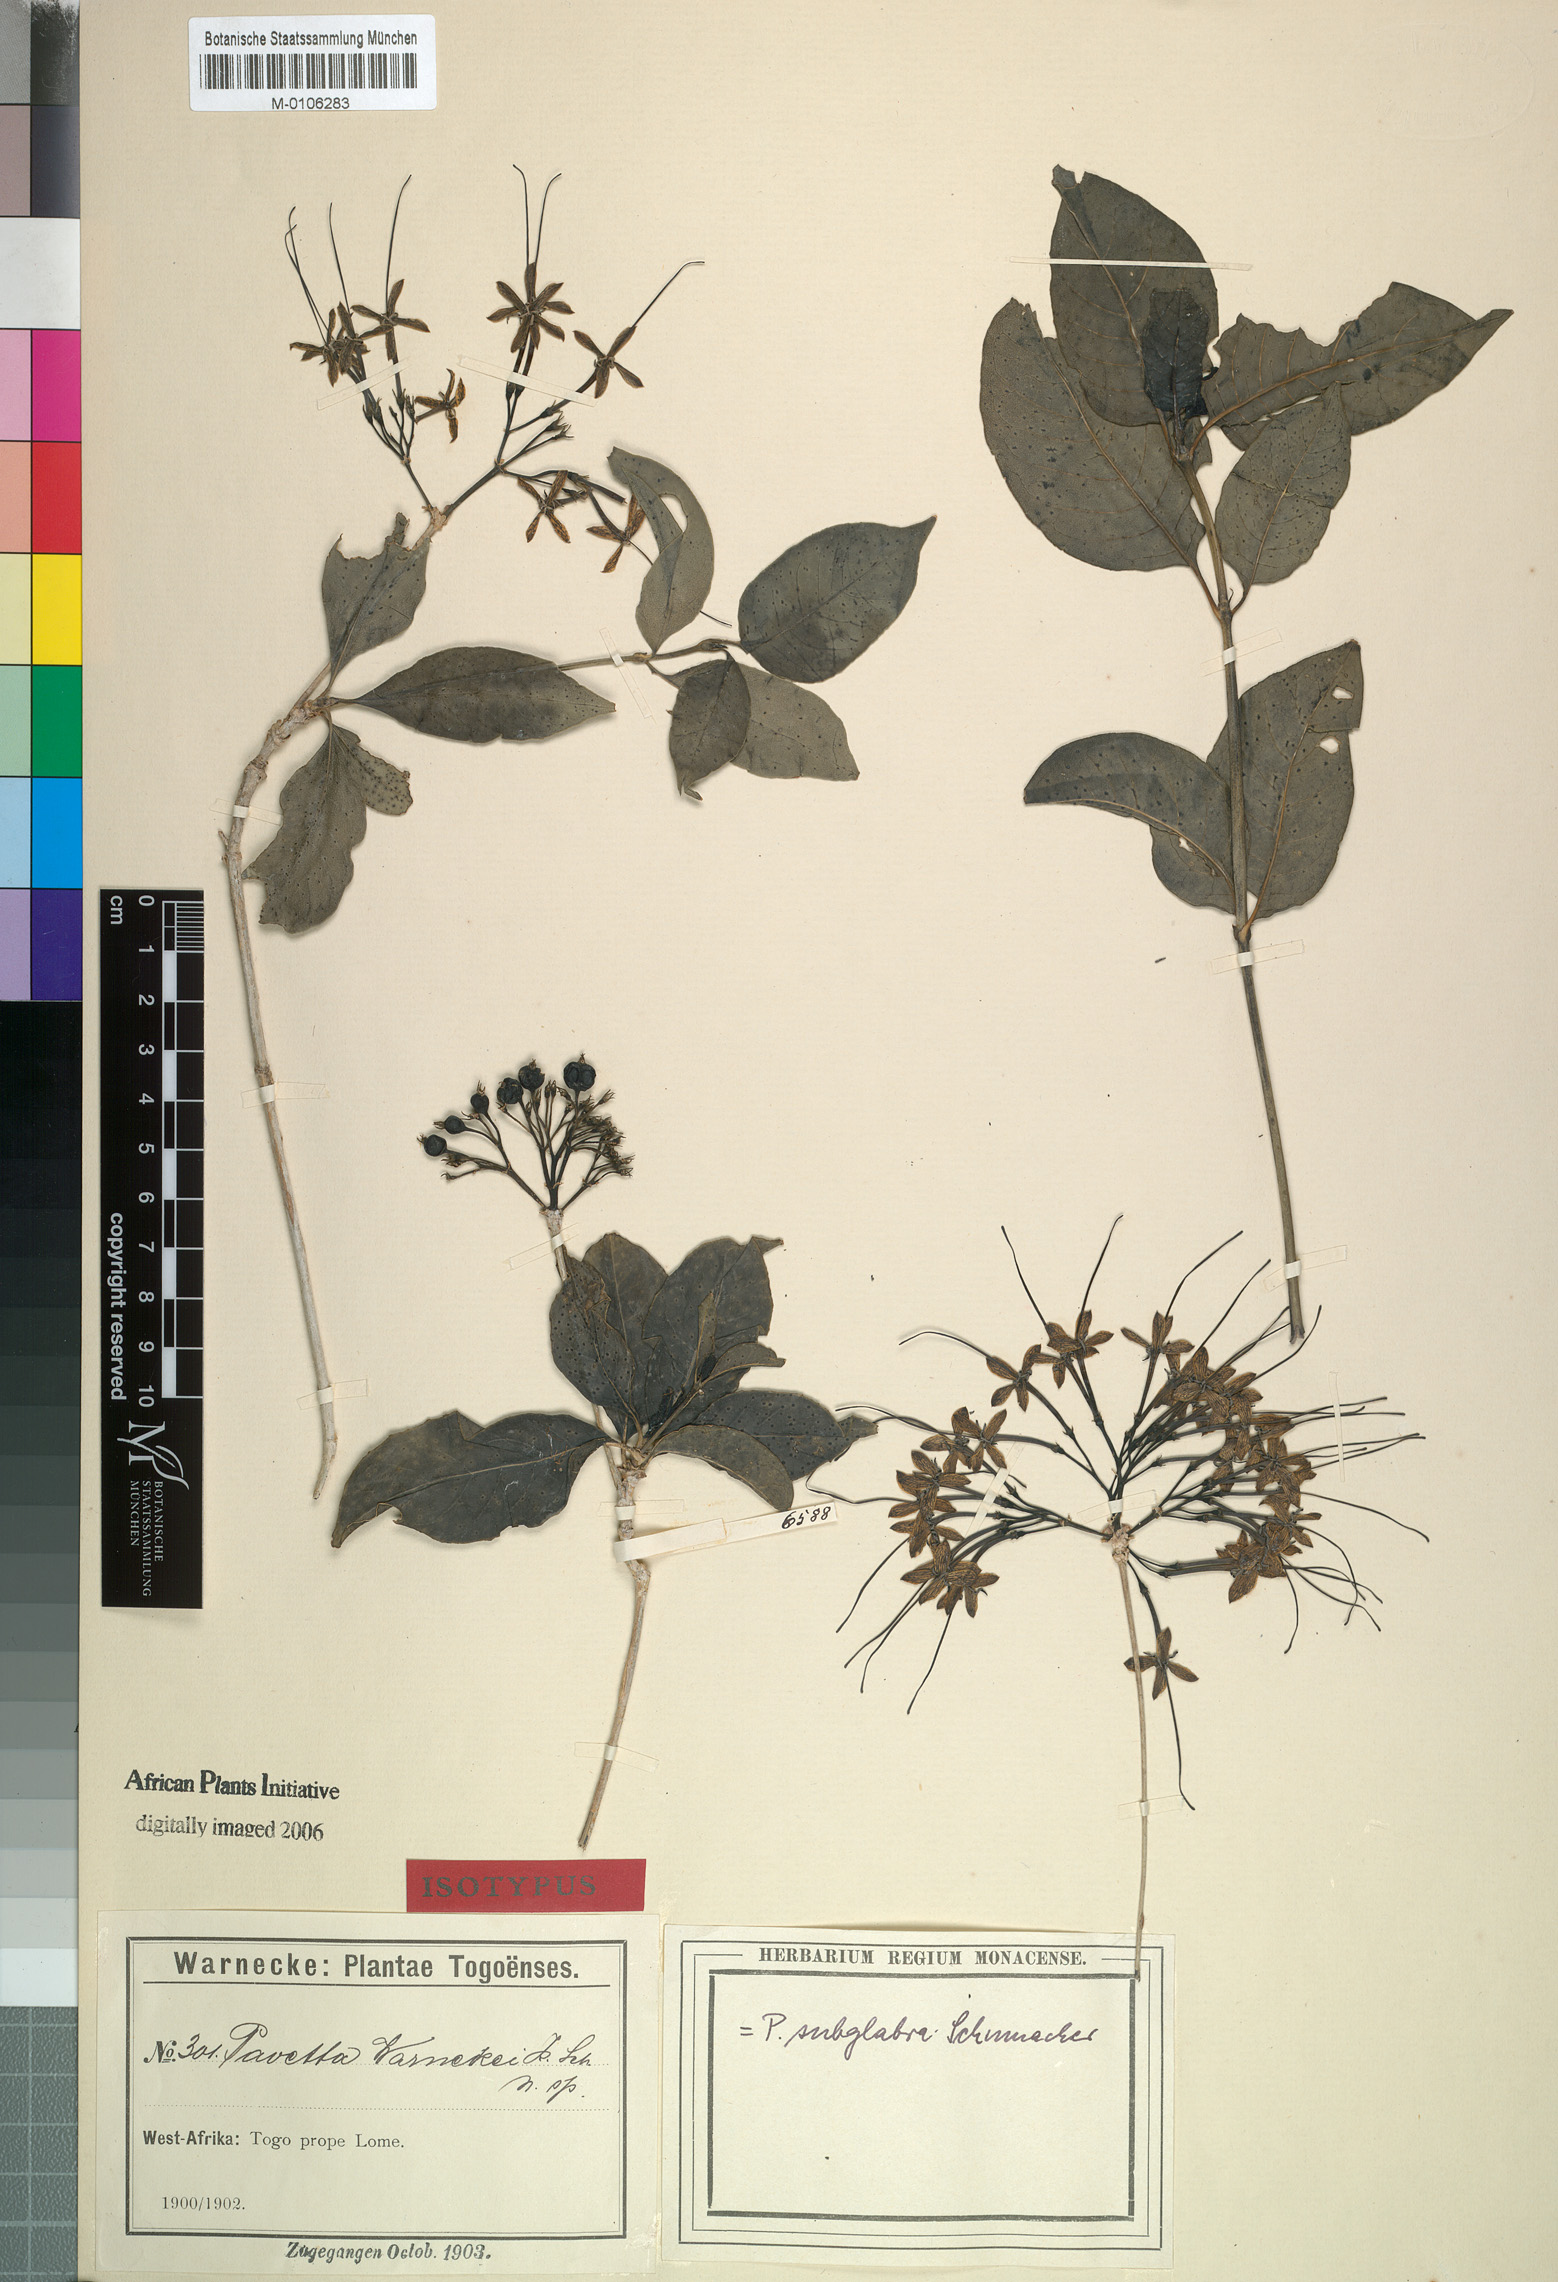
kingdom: Plantae
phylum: Tracheophyta
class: Magnoliopsida
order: Gentianales
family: Rubiaceae
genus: Pavetta
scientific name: Pavetta subglabra
